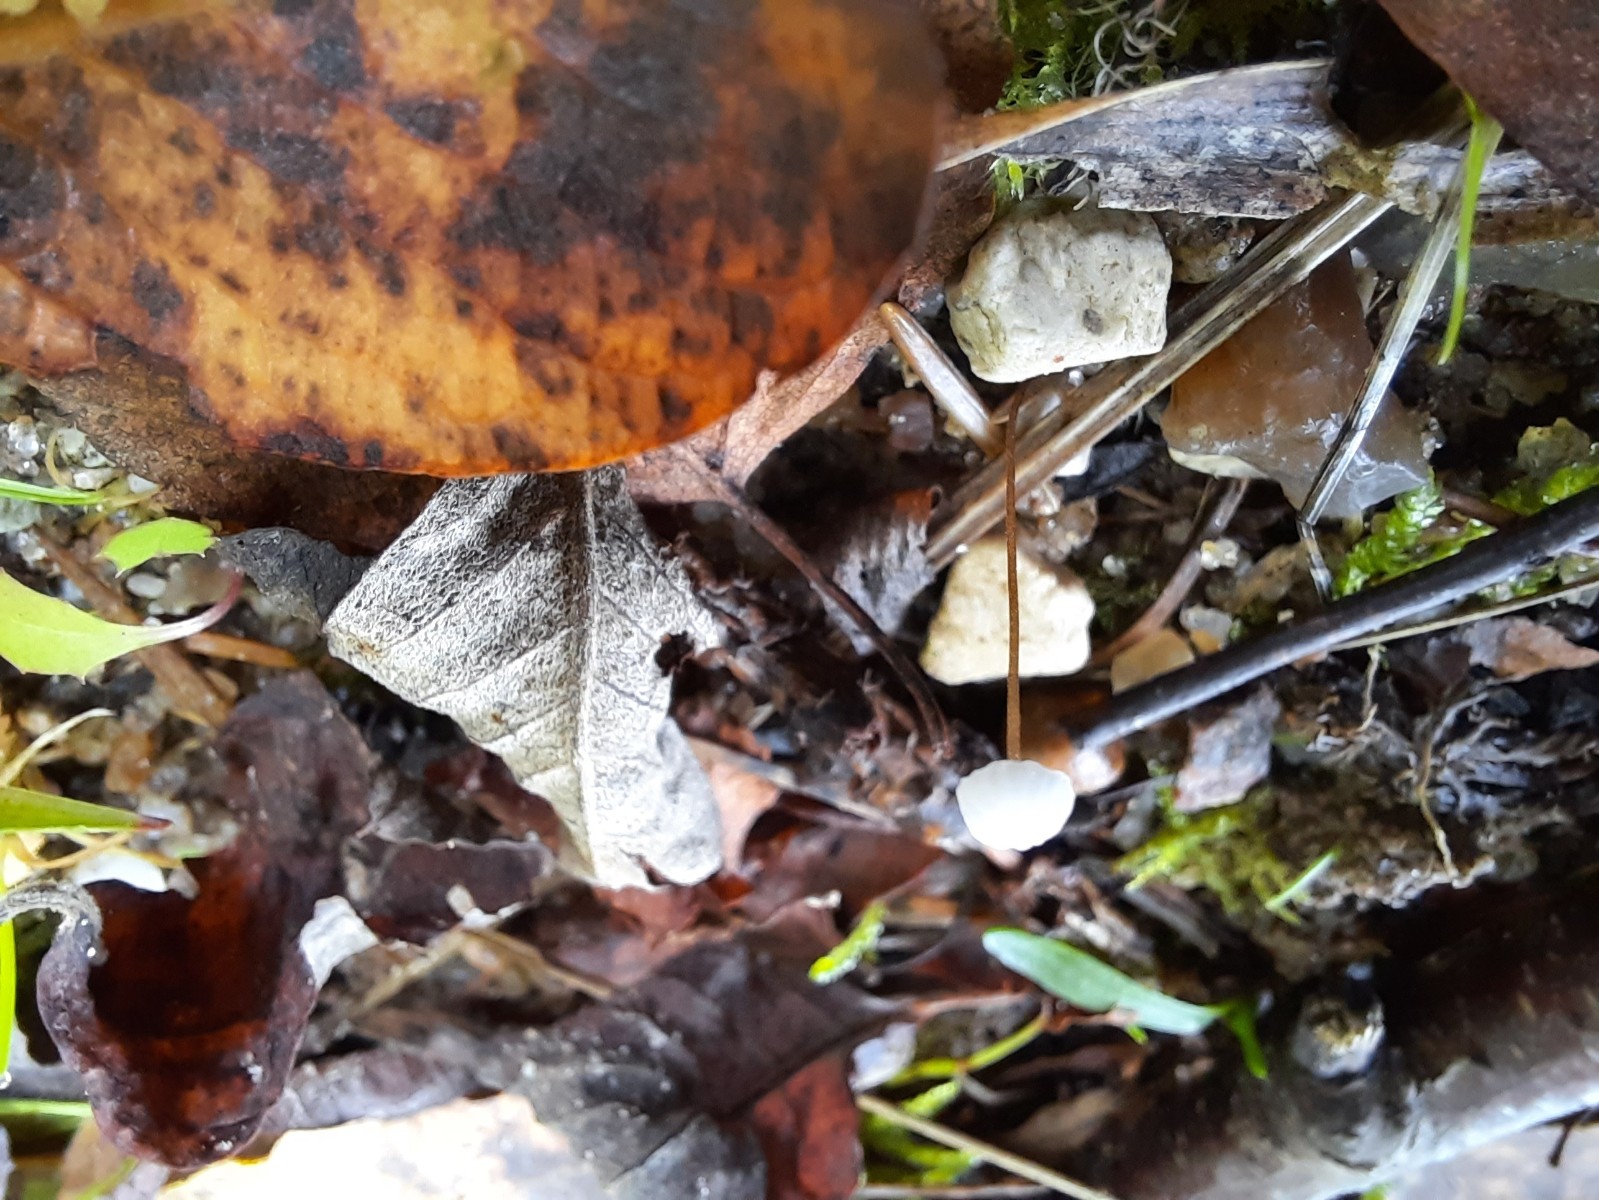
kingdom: Fungi
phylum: Basidiomycota
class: Agaricomycetes
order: Agaricales
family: Physalacriaceae
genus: Rhizomarasmius
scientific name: Rhizomarasmius setosus
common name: bøgeblads-bruskhat
